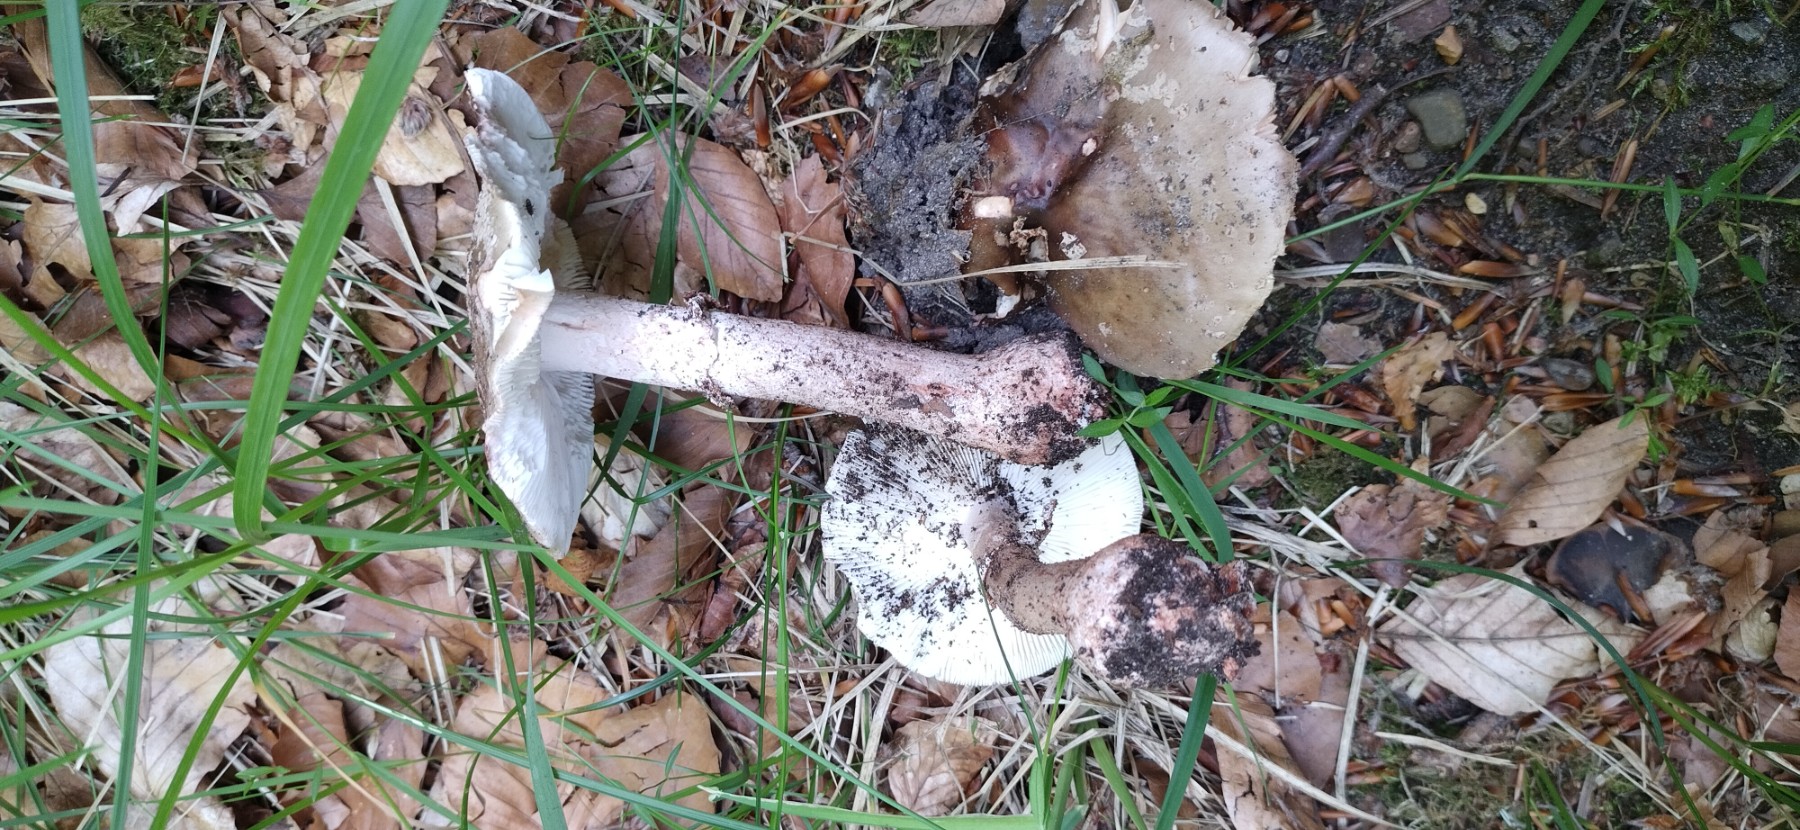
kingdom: Fungi
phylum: Basidiomycota
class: Agaricomycetes
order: Agaricales
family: Amanitaceae
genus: Amanita
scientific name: Amanita rubescens
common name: rødmende fluesvamp
